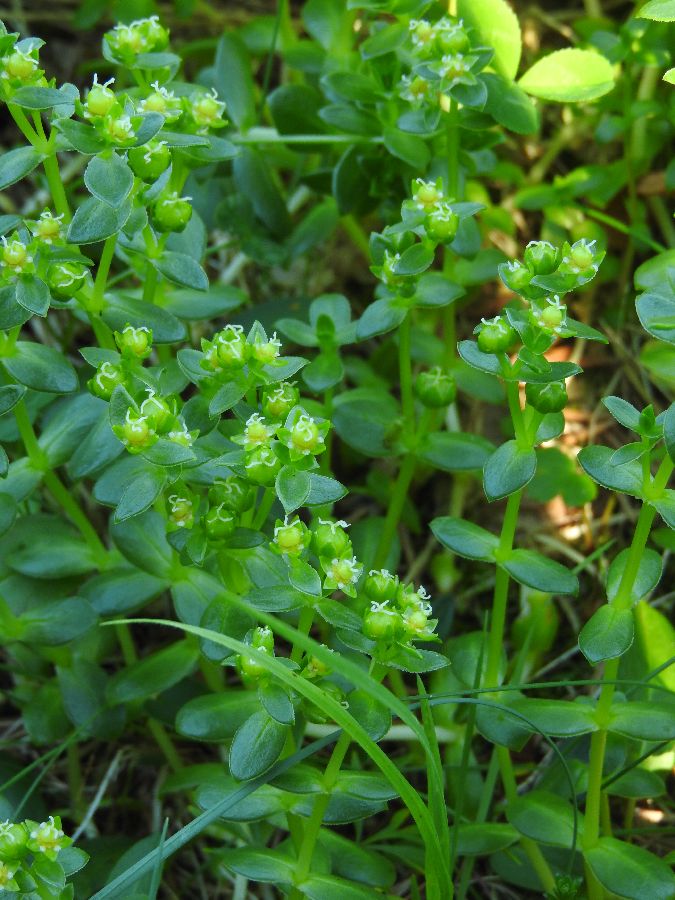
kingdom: Plantae
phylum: Tracheophyta
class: Magnoliopsida
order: Caryophyllales
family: Caryophyllaceae
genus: Honckenya
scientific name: Honckenya peploides
